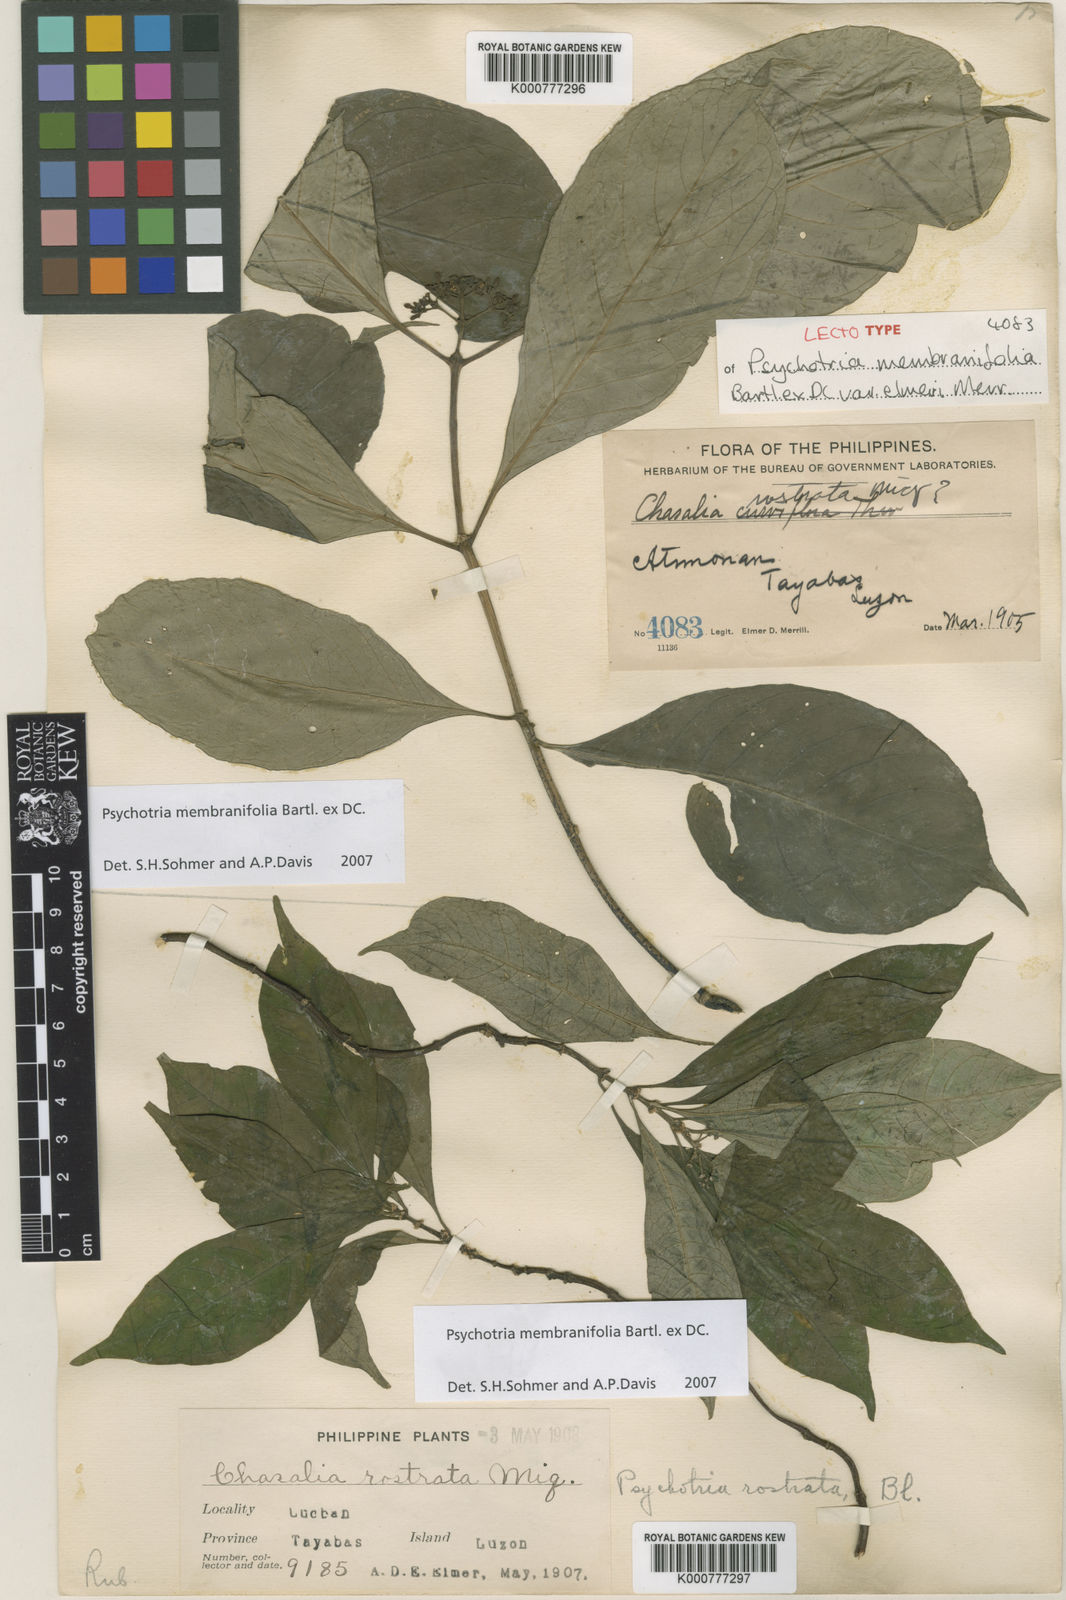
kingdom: Plantae
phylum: Tracheophyta
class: Magnoliopsida
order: Gentianales
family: Rubiaceae
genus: Eumachia
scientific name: Eumachia membranifolia
